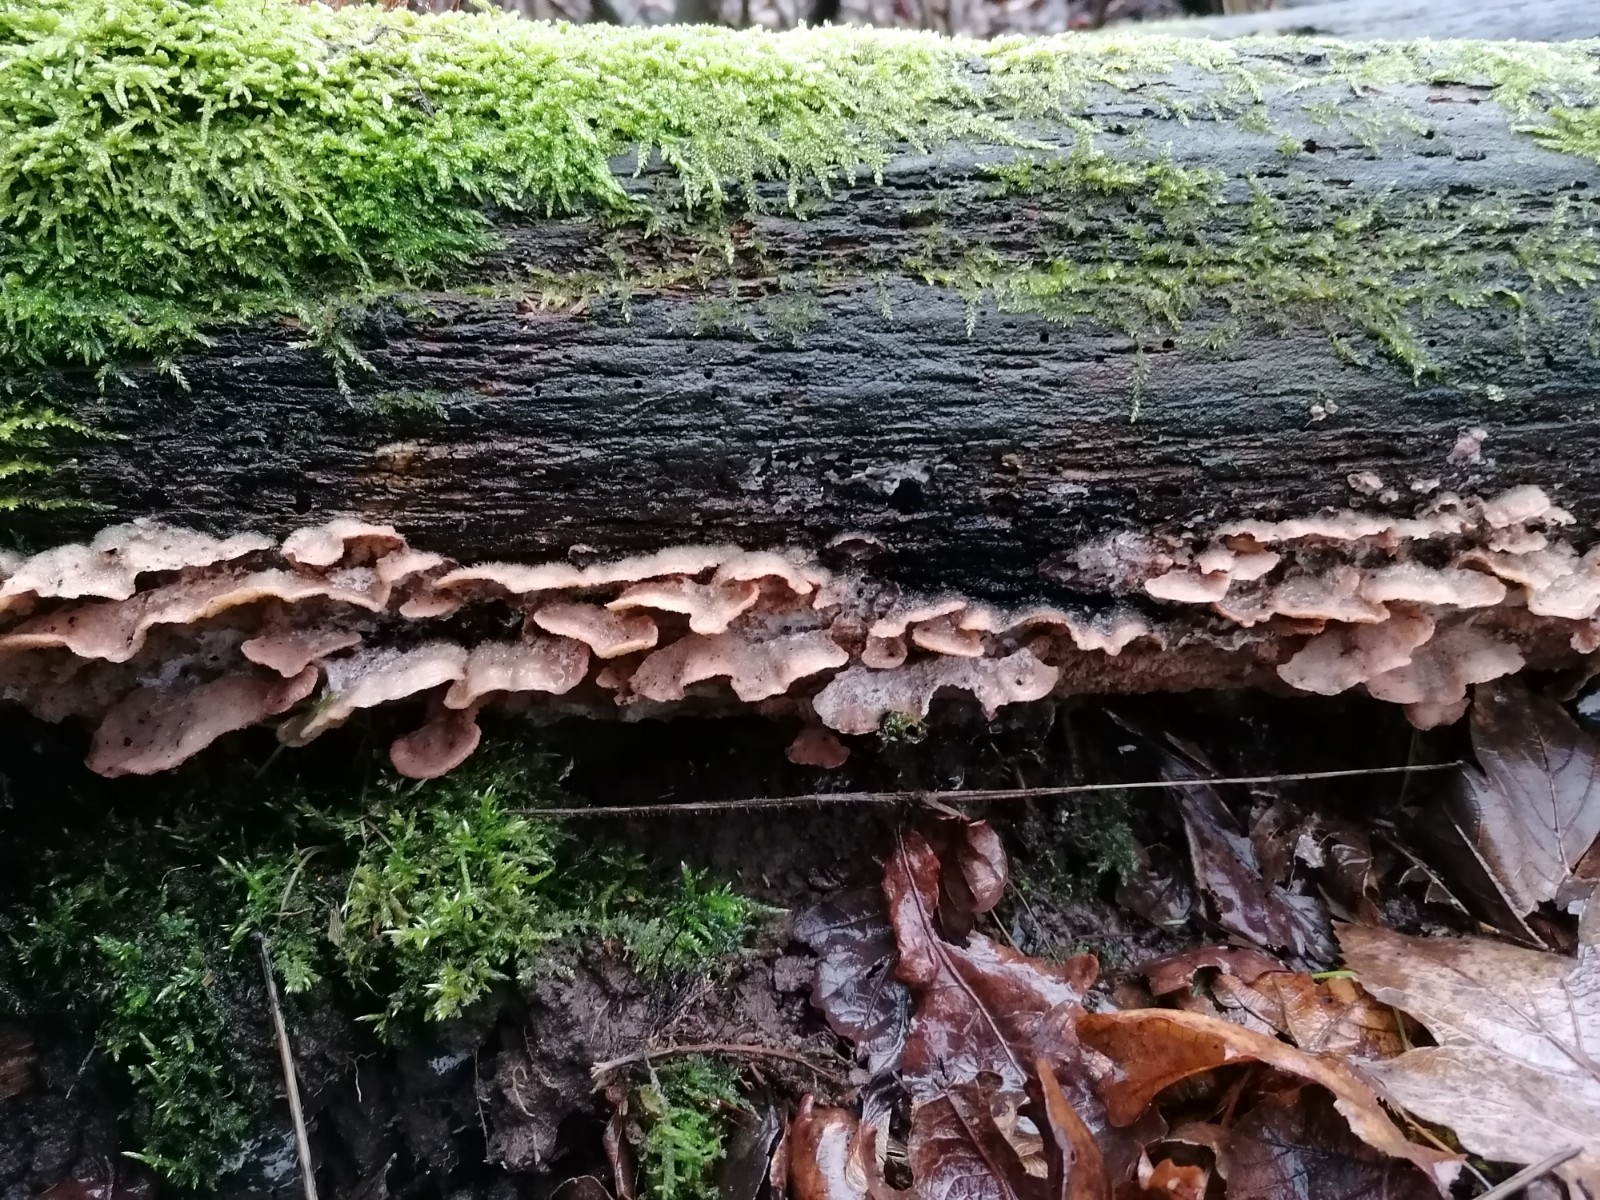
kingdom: Fungi
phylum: Basidiomycota
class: Agaricomycetes
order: Polyporales
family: Meruliaceae
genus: Phlebia
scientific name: Phlebia tremellosa
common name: bævrende åresvamp
